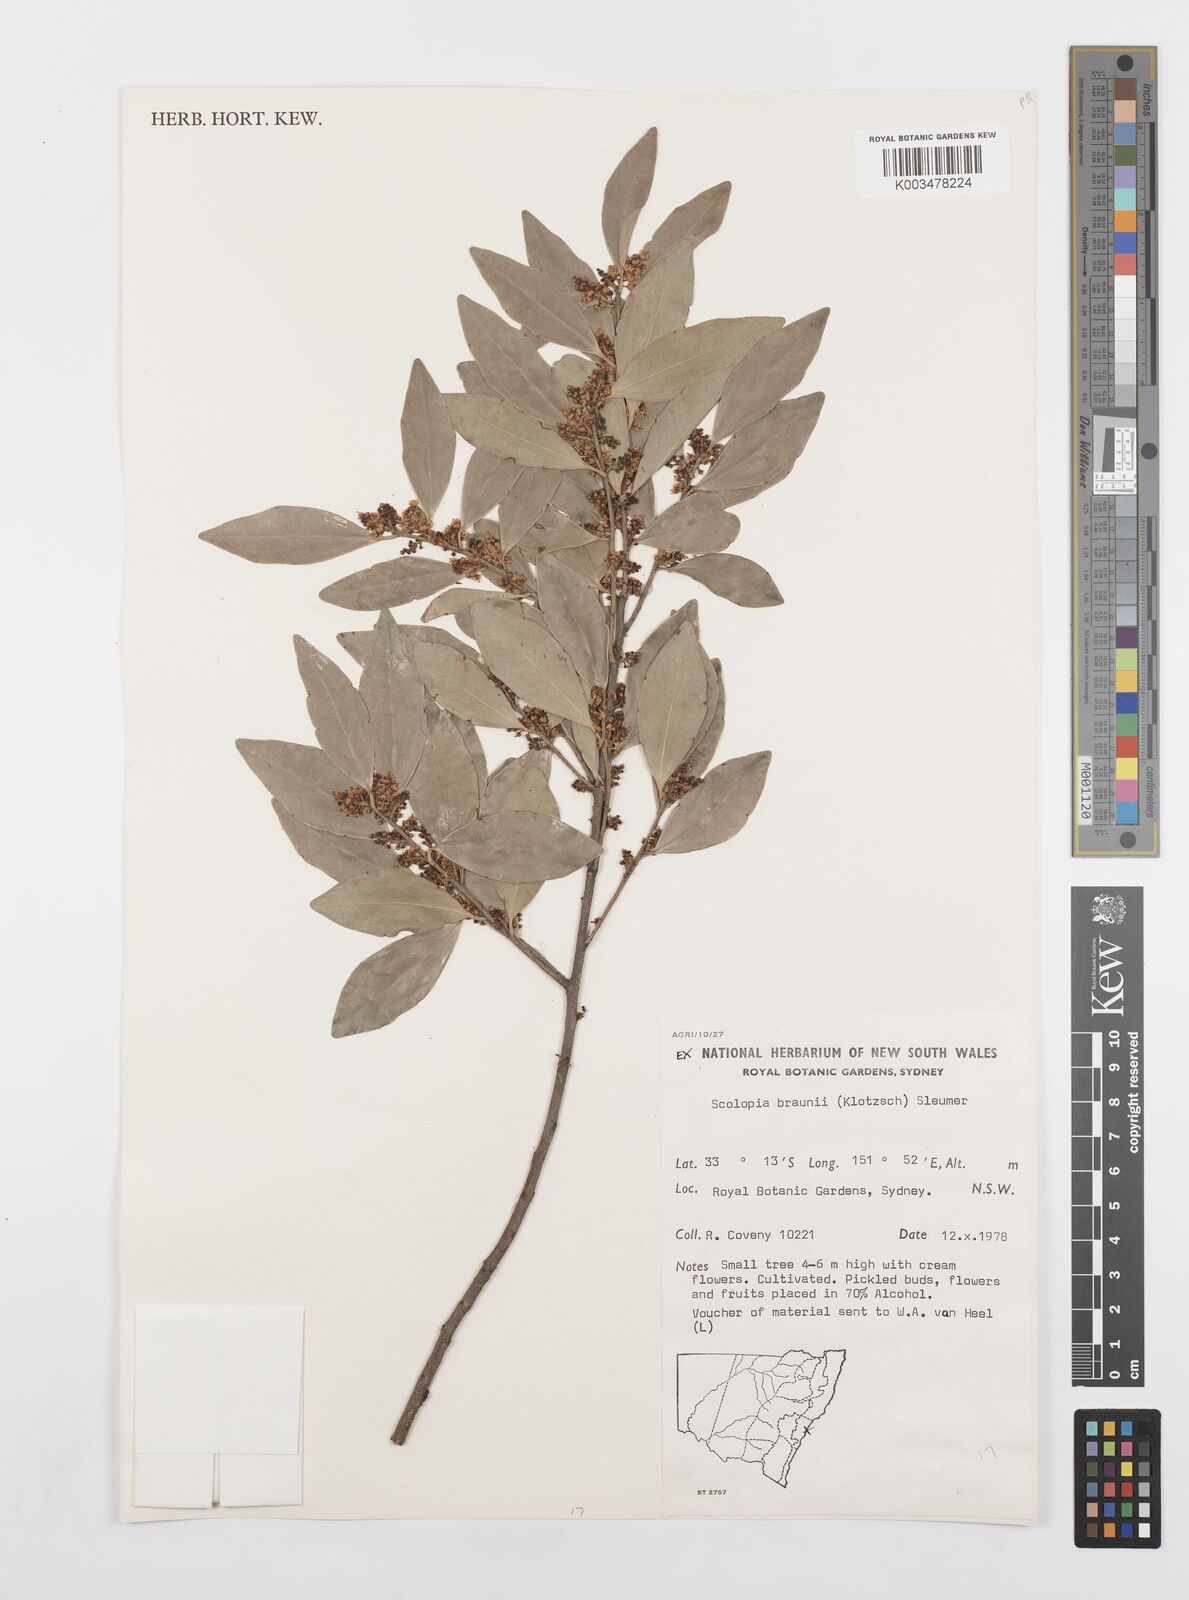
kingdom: Plantae
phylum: Tracheophyta
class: Magnoliopsida
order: Malpighiales
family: Salicaceae
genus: Scolopia
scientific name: Scolopia braunii
